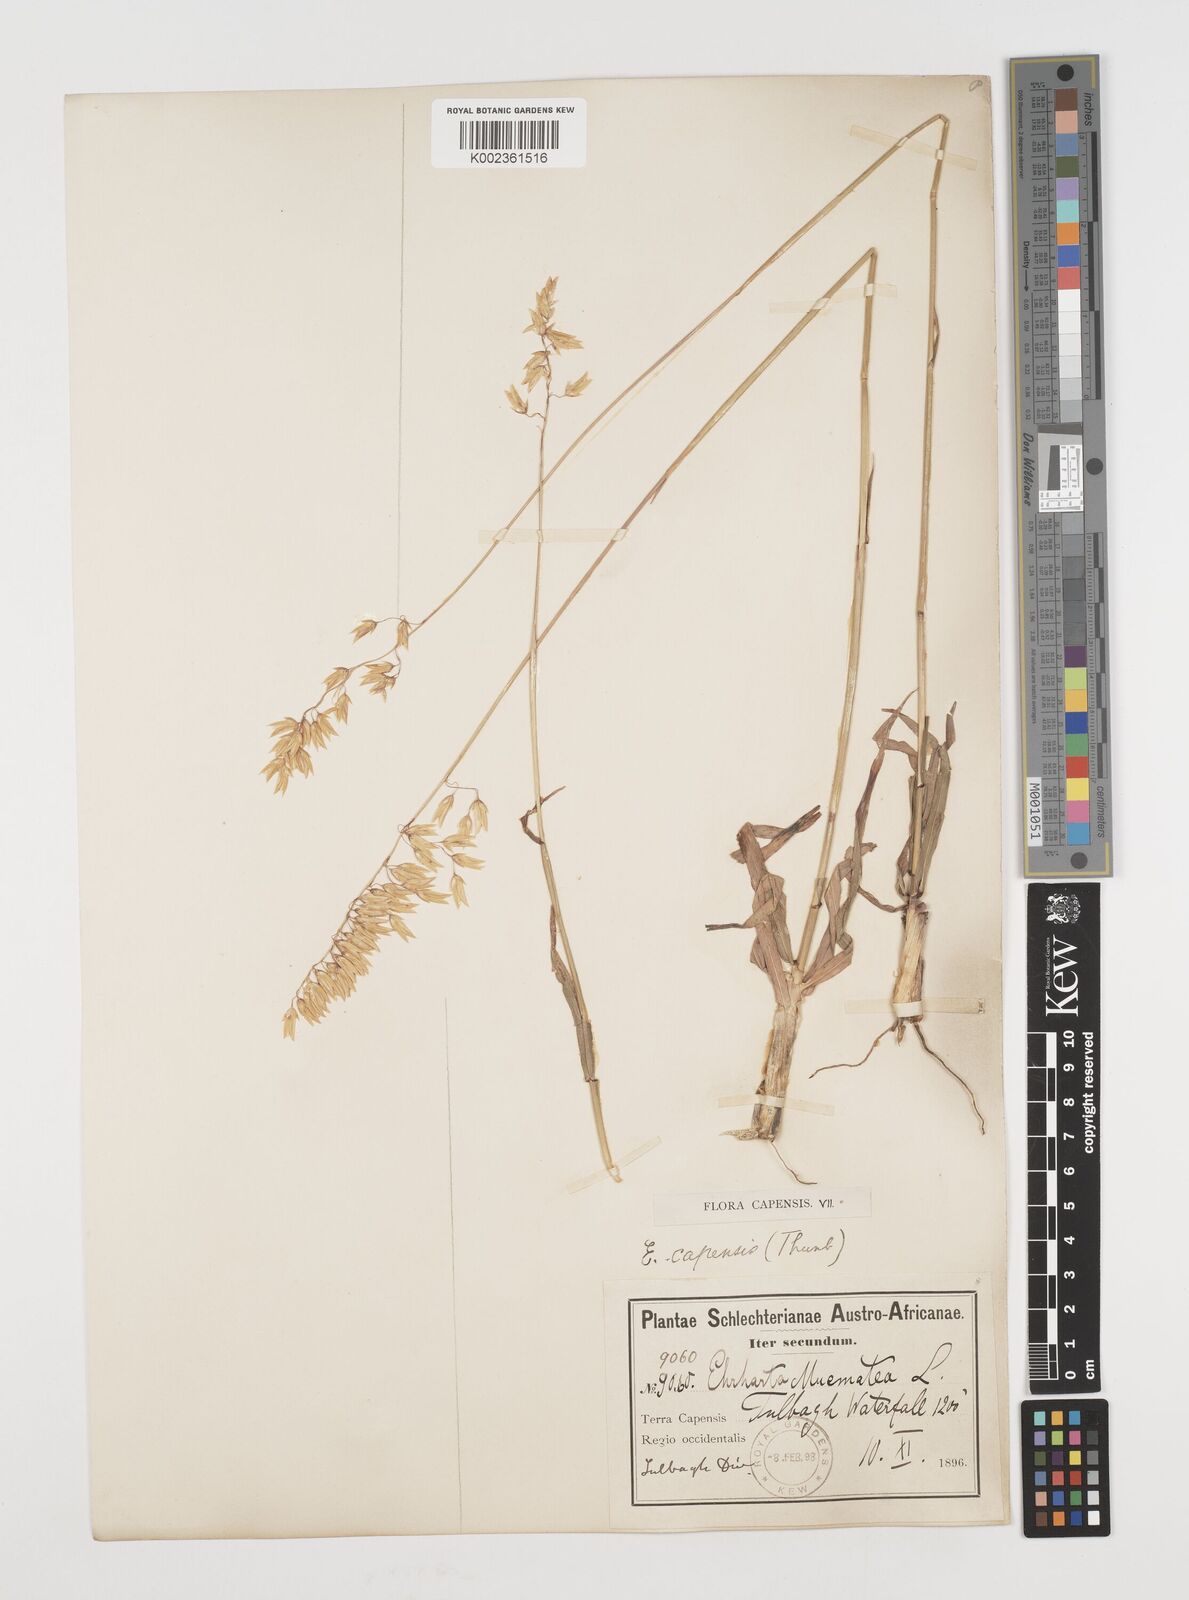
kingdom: Plantae
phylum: Tracheophyta
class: Liliopsida
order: Poales
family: Poaceae
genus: Ehrharta
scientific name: Ehrharta capensis
